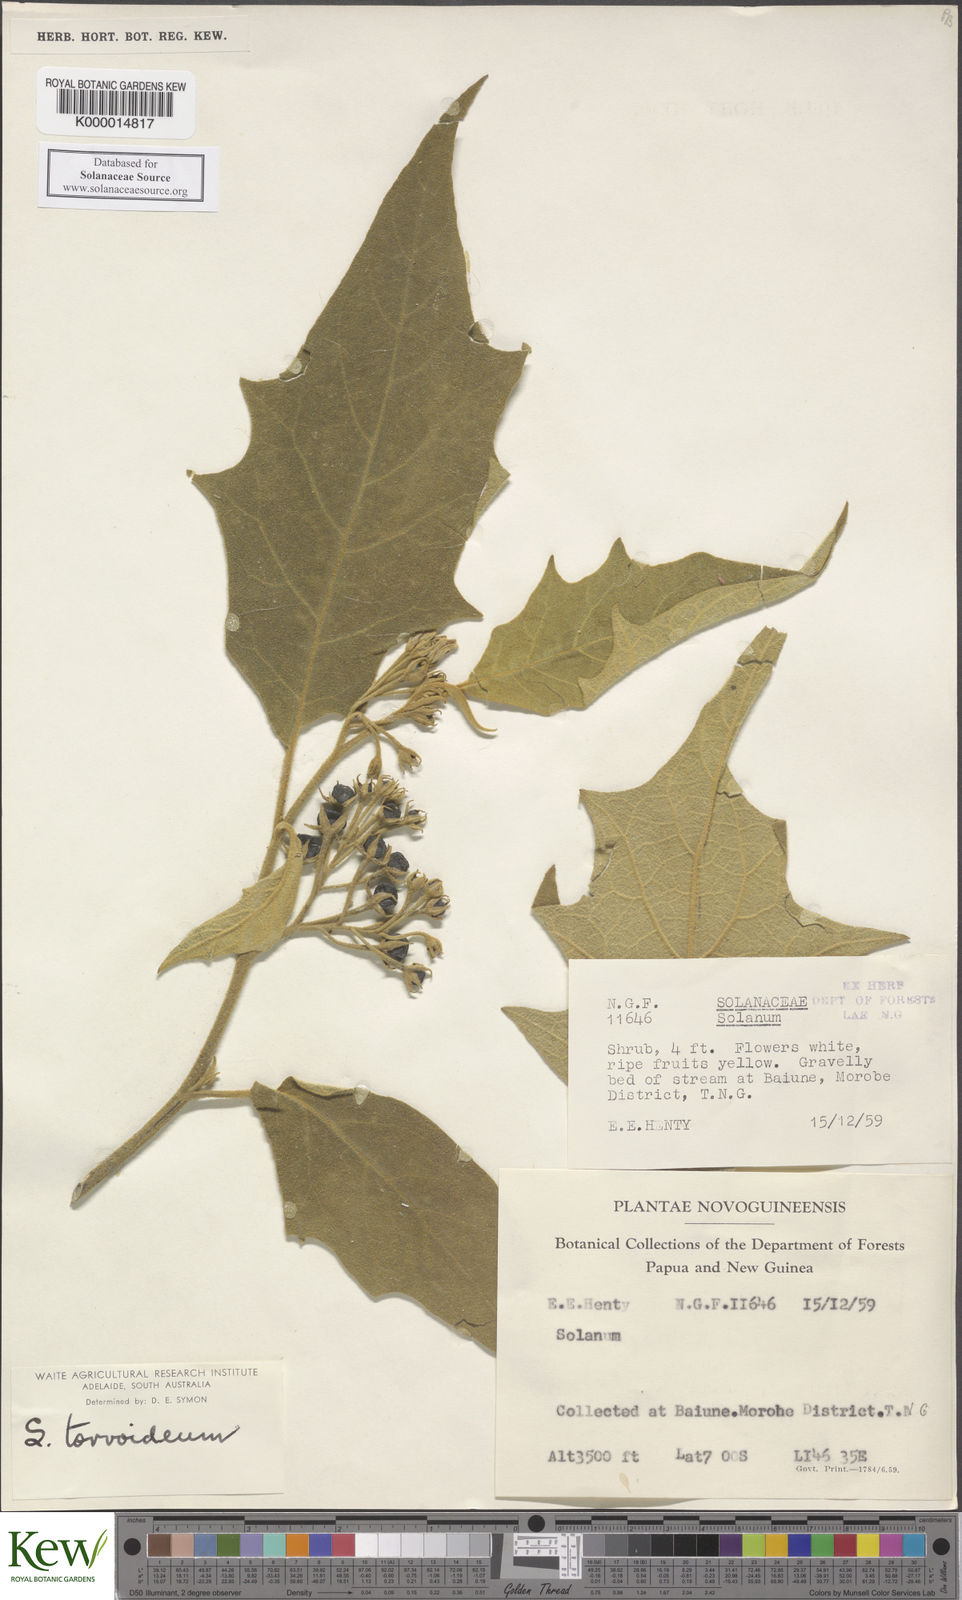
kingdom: Plantae
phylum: Tracheophyta
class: Magnoliopsida
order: Solanales
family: Solanaceae
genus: Solanum
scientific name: Solanum torvoideum
